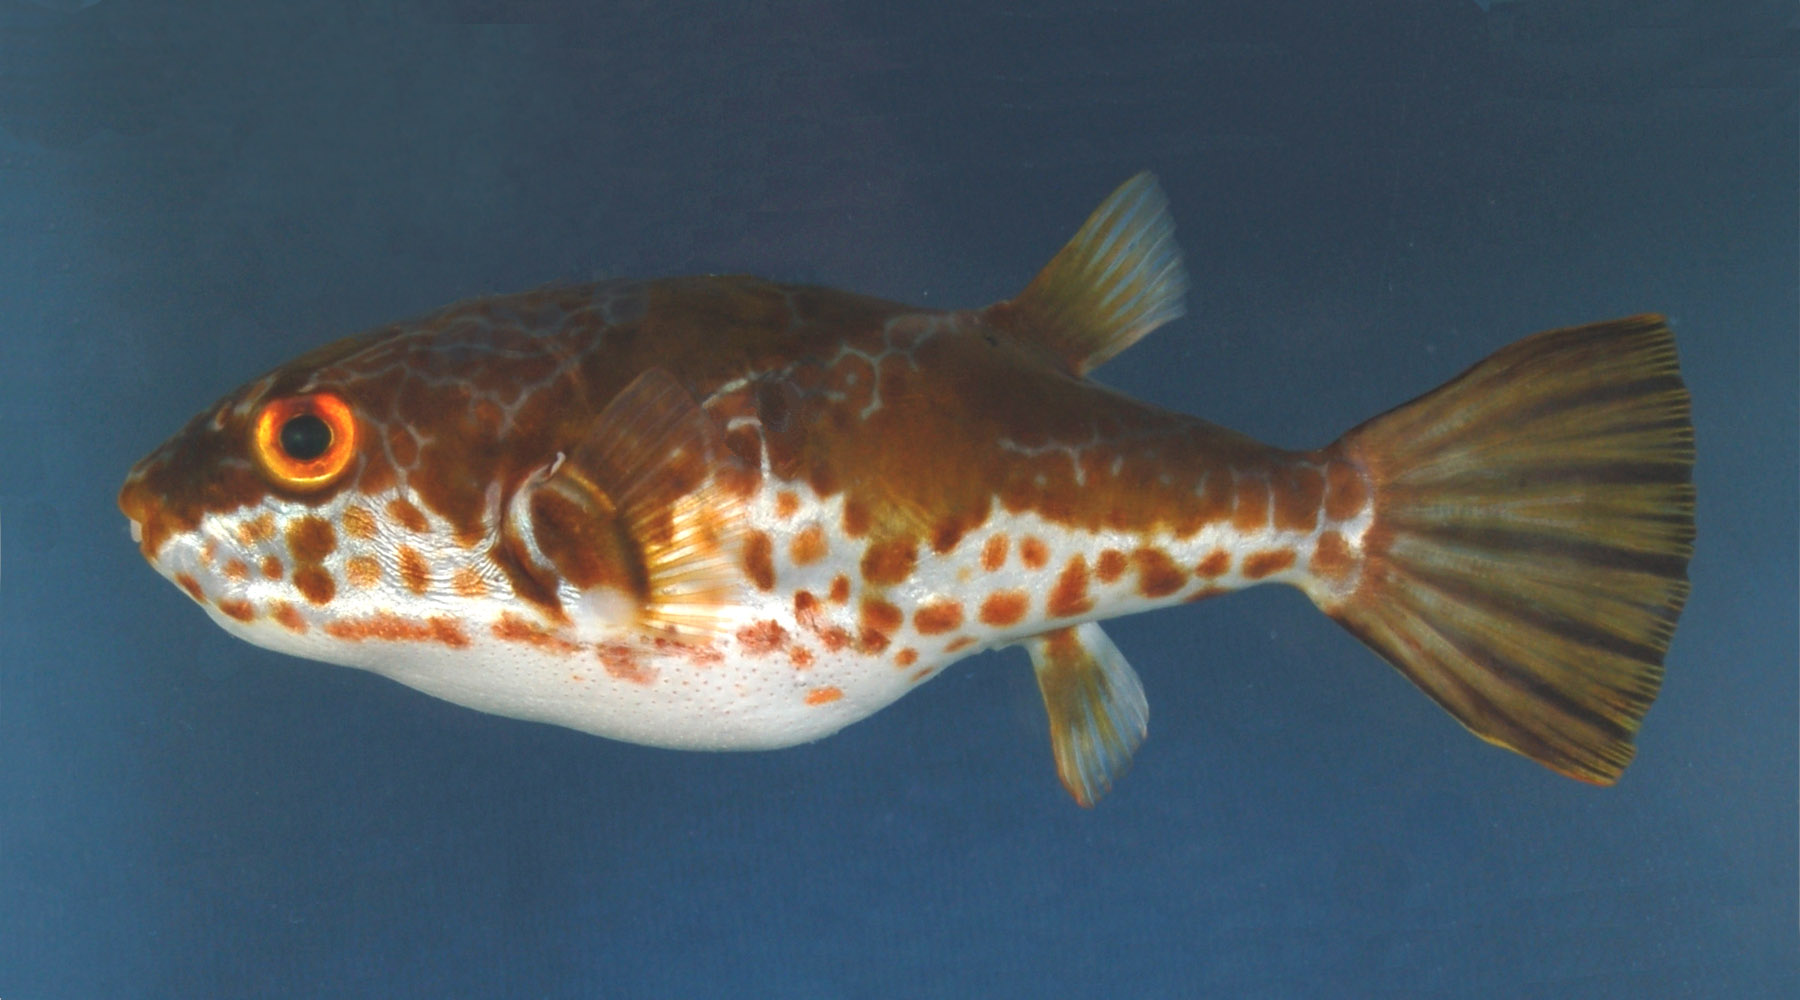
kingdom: Animalia
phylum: Chordata
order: Tetraodontiformes
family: Tetraodontidae
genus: Chelonodon
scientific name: Chelonodon pleurospilus
